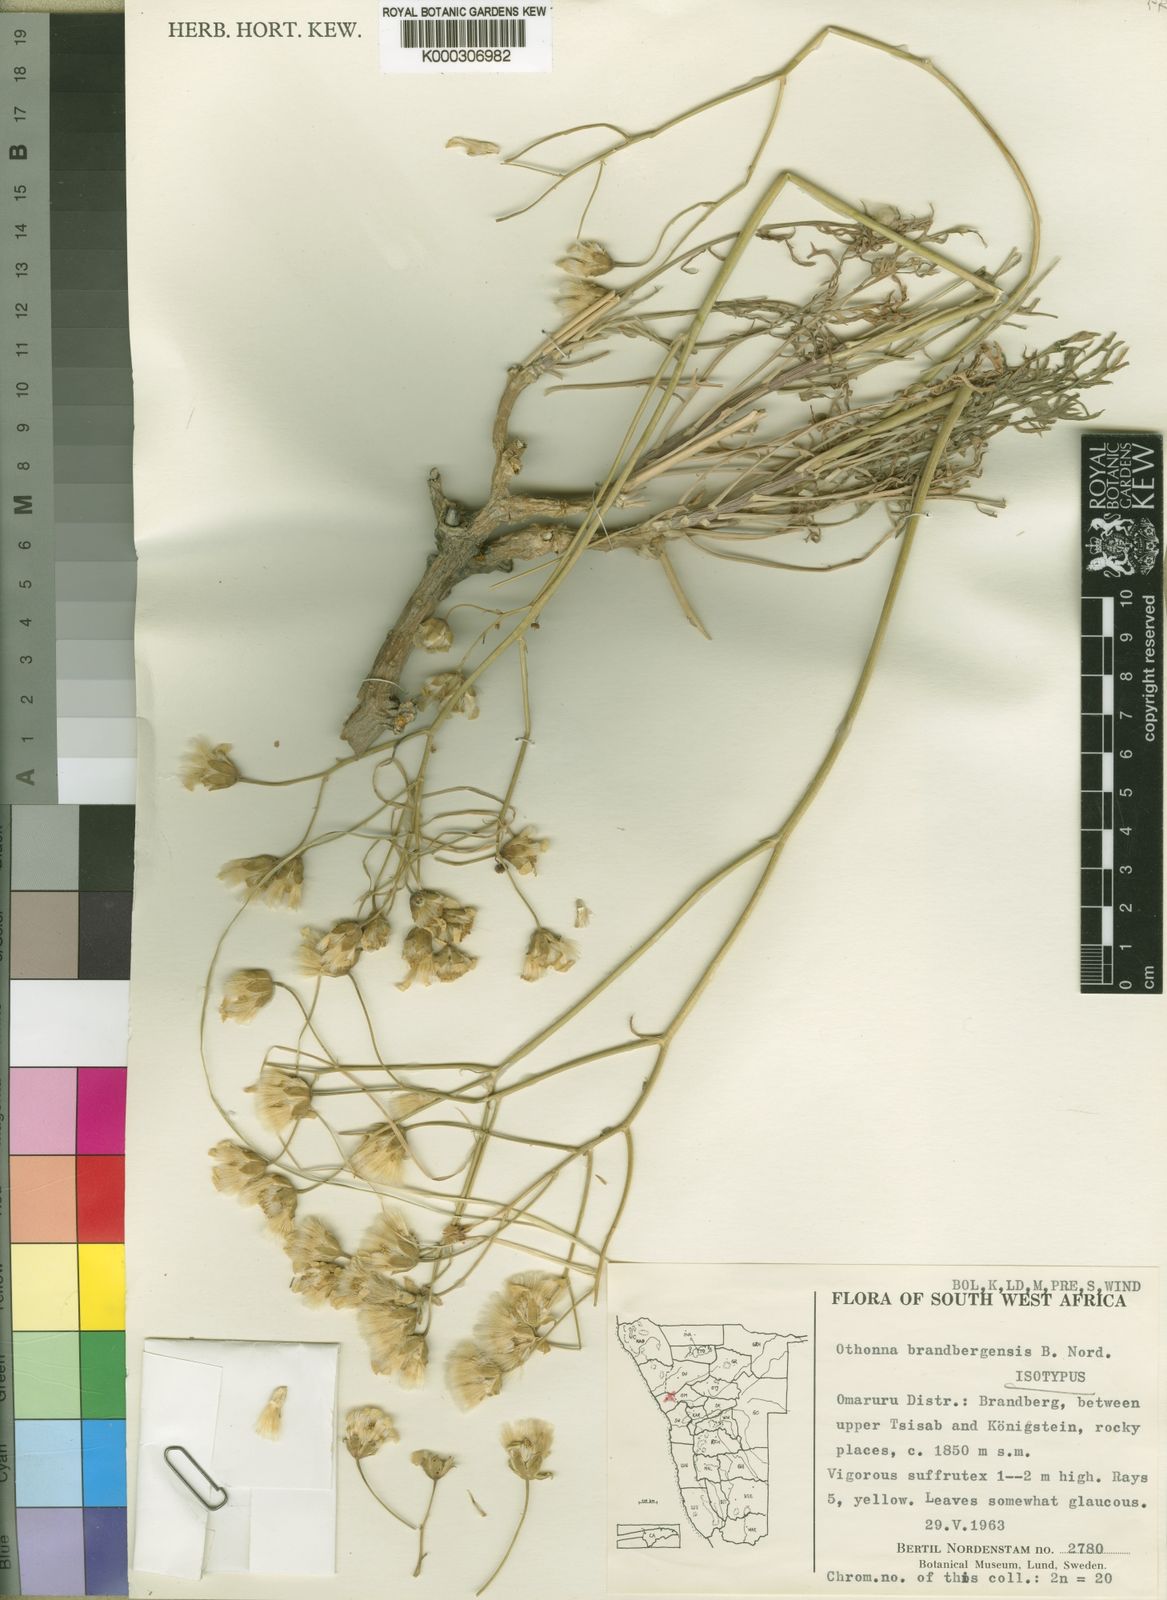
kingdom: Plantae
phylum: Tracheophyta
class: Magnoliopsida
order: Asterales
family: Asteraceae
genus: Othonna
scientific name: Othonna brandbergensis
